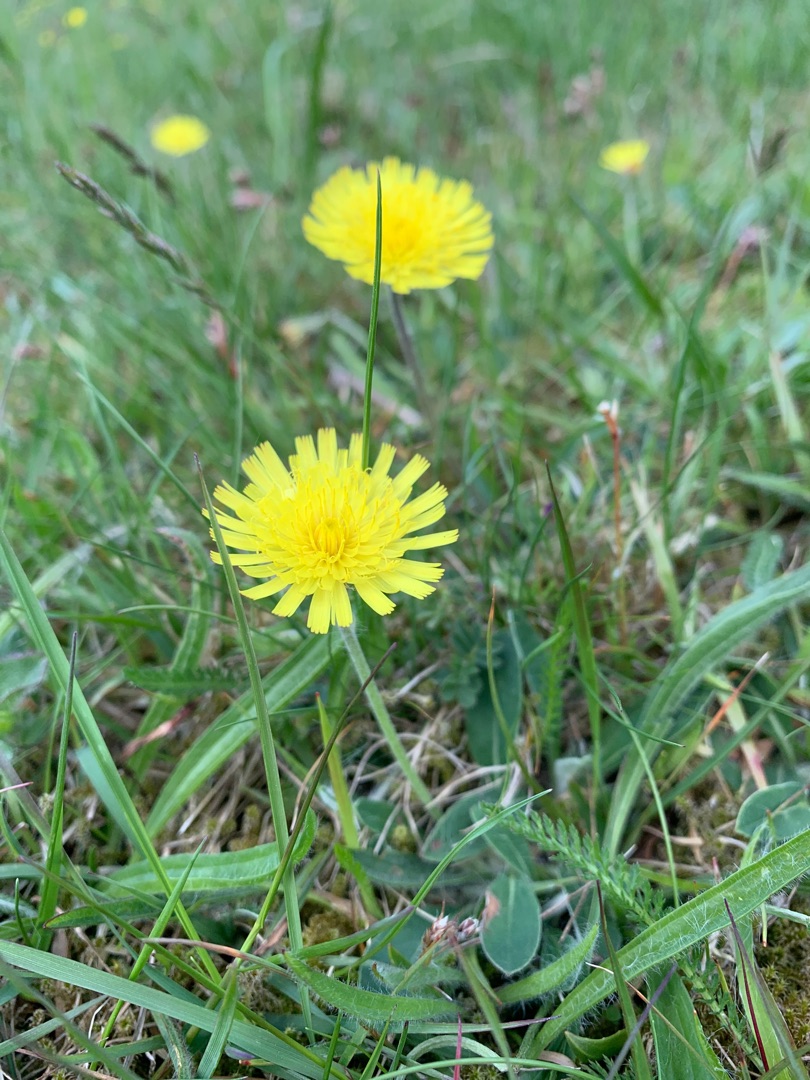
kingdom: Plantae
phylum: Tracheophyta
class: Magnoliopsida
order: Asterales
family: Asteraceae
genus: Pilosella
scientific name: Pilosella officinarum
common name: Håret høgeurt
